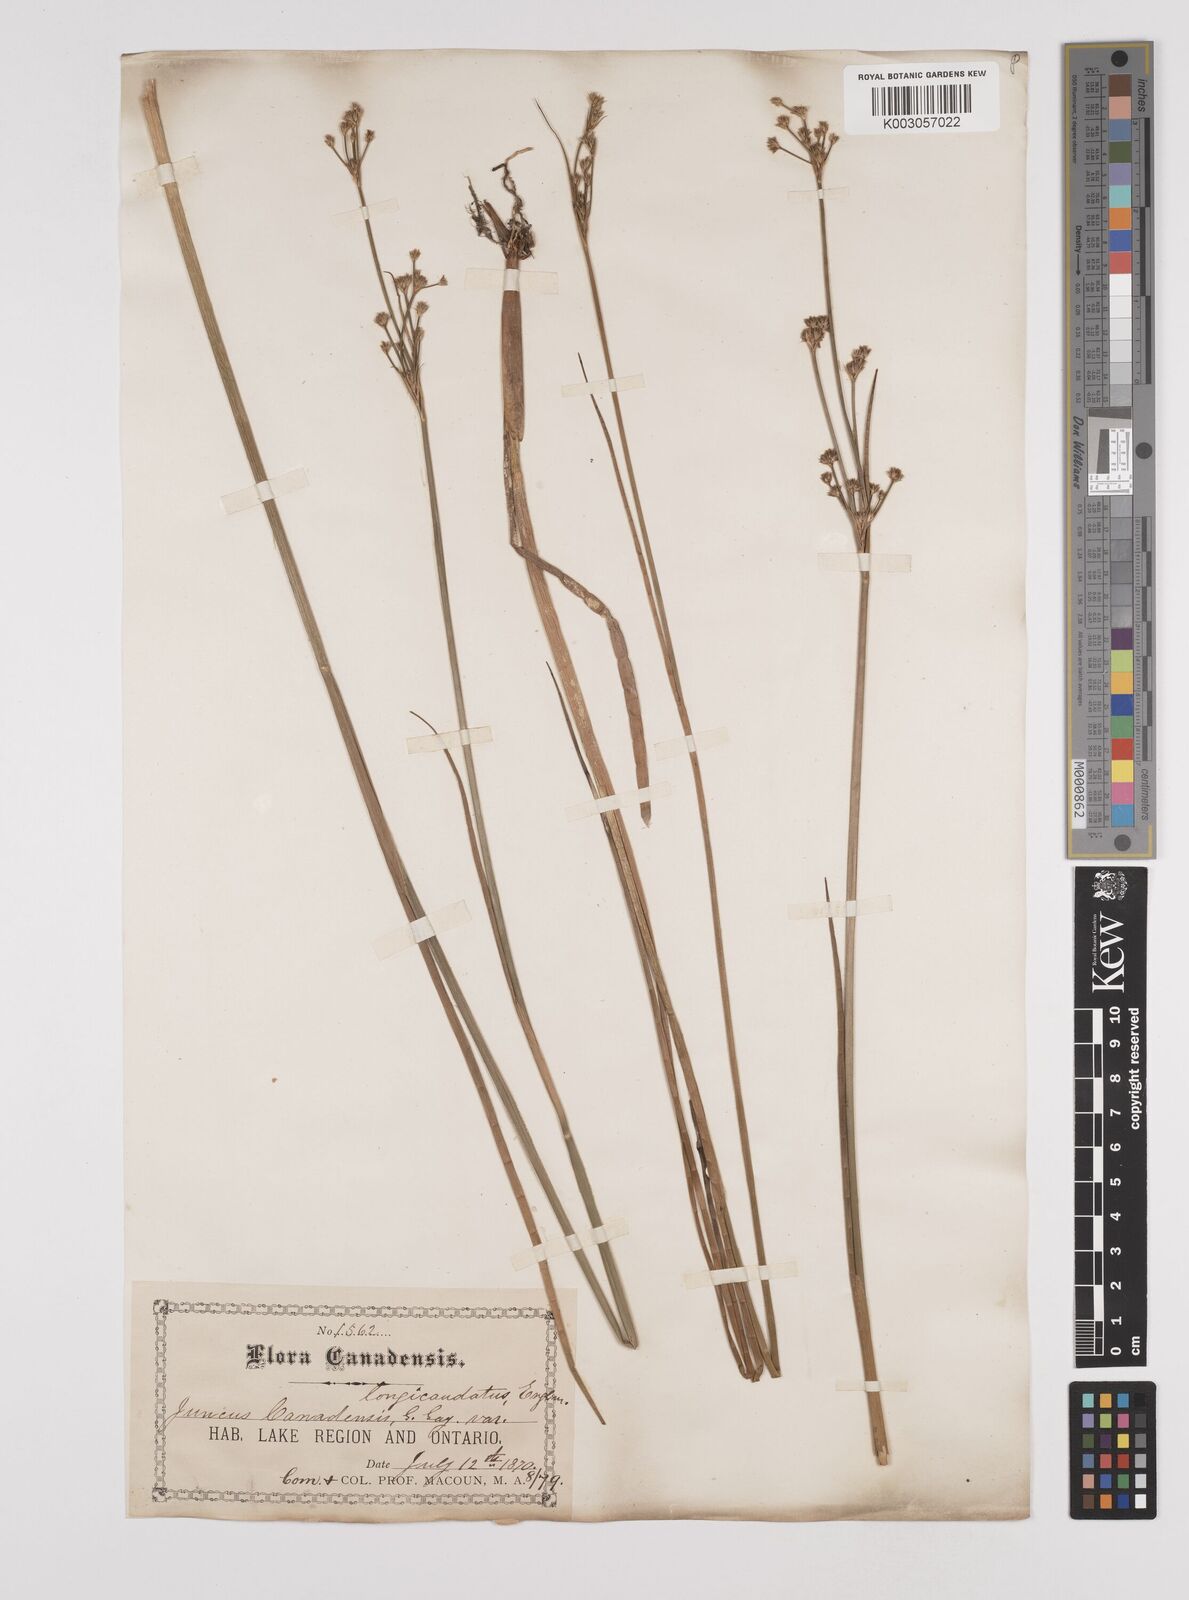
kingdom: Plantae
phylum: Tracheophyta
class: Liliopsida
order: Poales
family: Juncaceae
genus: Juncus
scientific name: Juncus canadensis
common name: Canada rush
